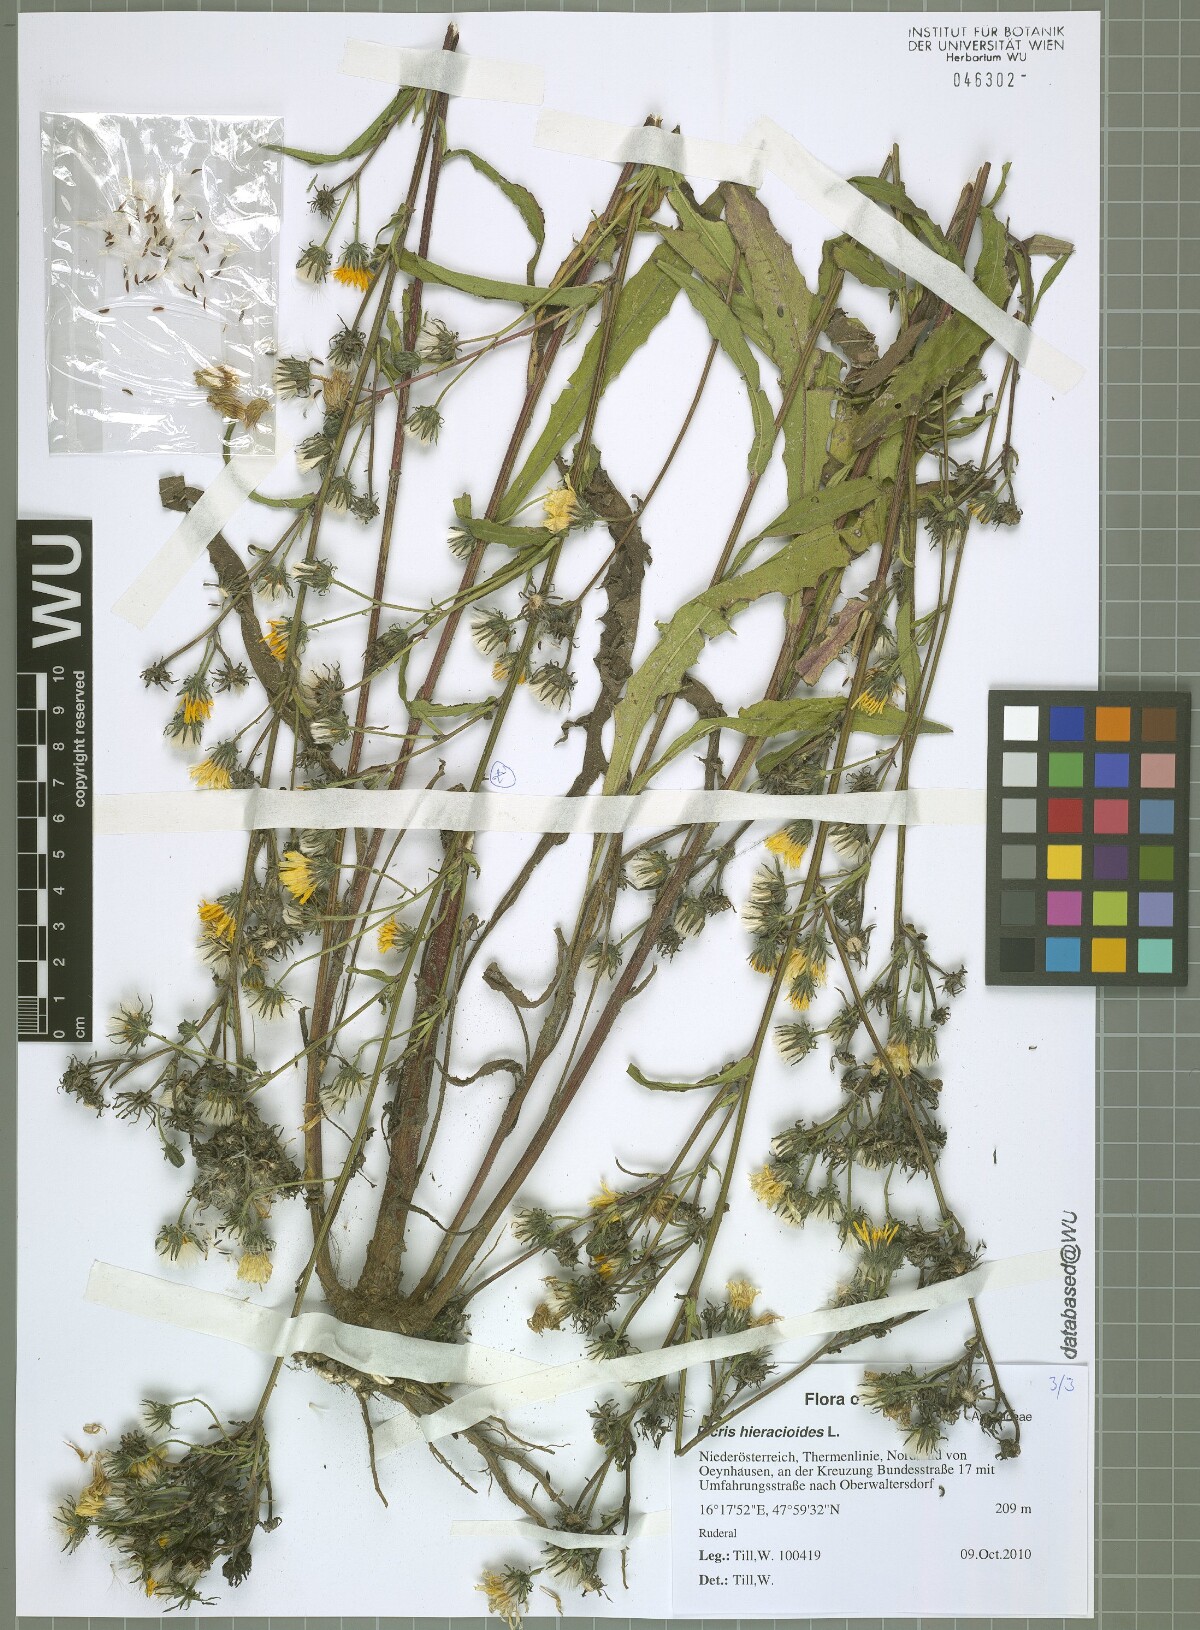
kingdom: Plantae
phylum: Tracheophyta
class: Magnoliopsida
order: Asterales
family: Asteraceae
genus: Picris
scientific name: Picris hieracioides
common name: Hawkweed oxtongue
